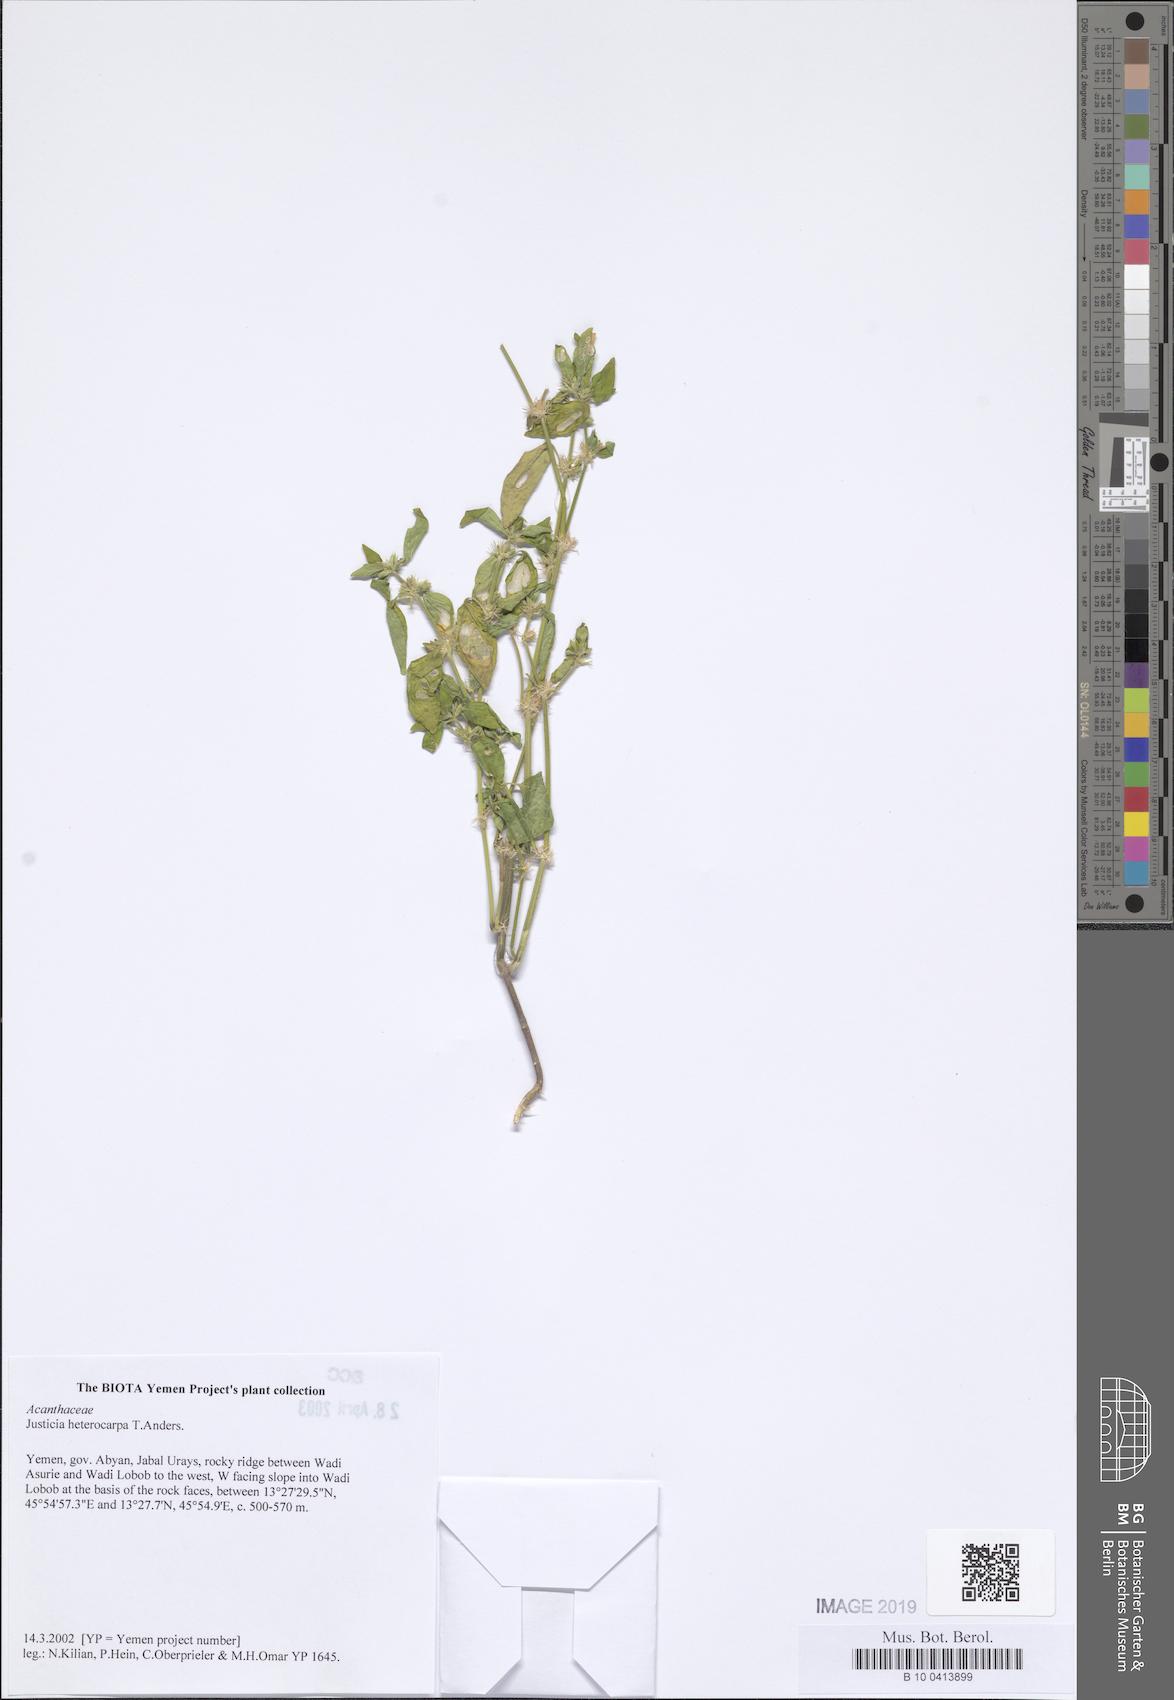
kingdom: Plantae
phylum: Tracheophyta
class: Magnoliopsida
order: Lamiales
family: Acanthaceae
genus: Justicia
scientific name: Justicia heterocarpa
